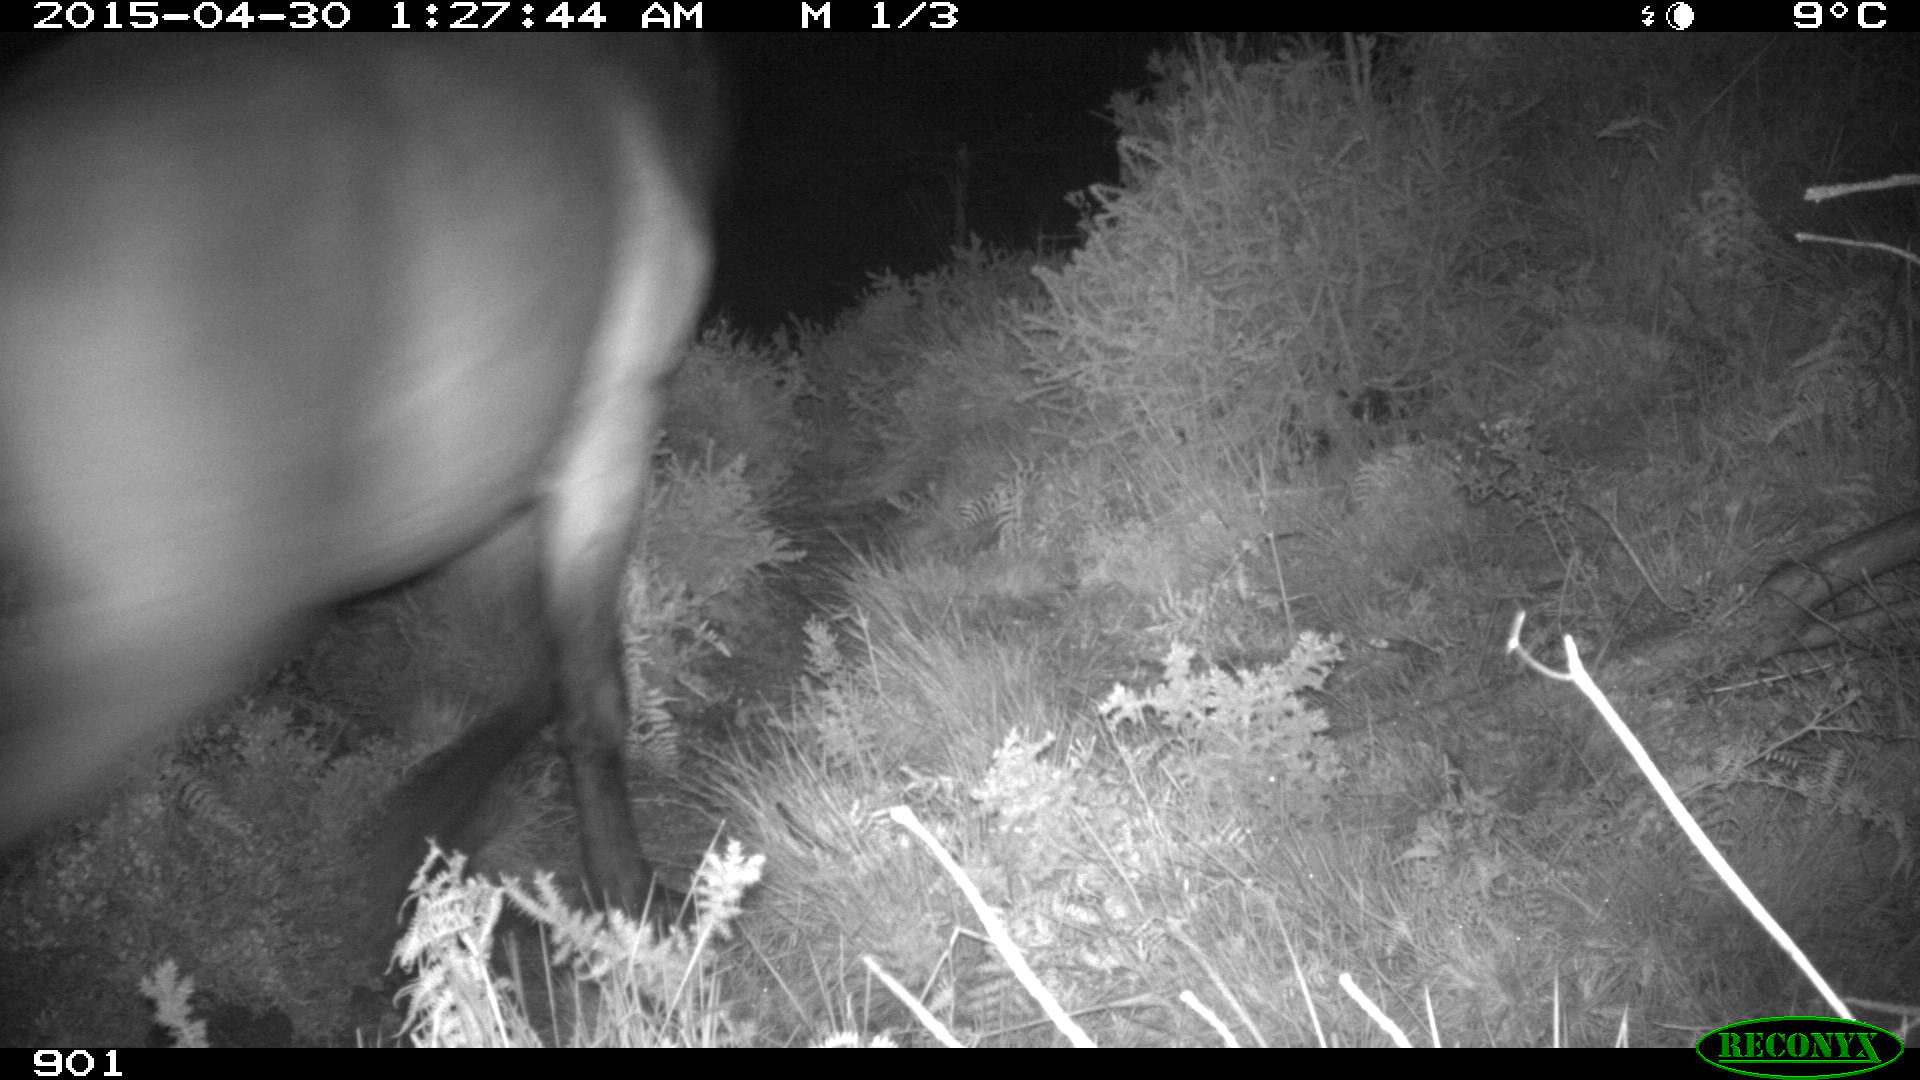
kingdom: Animalia
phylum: Chordata
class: Mammalia
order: Perissodactyla
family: Equidae
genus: Equus
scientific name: Equus caballus
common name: Horse
